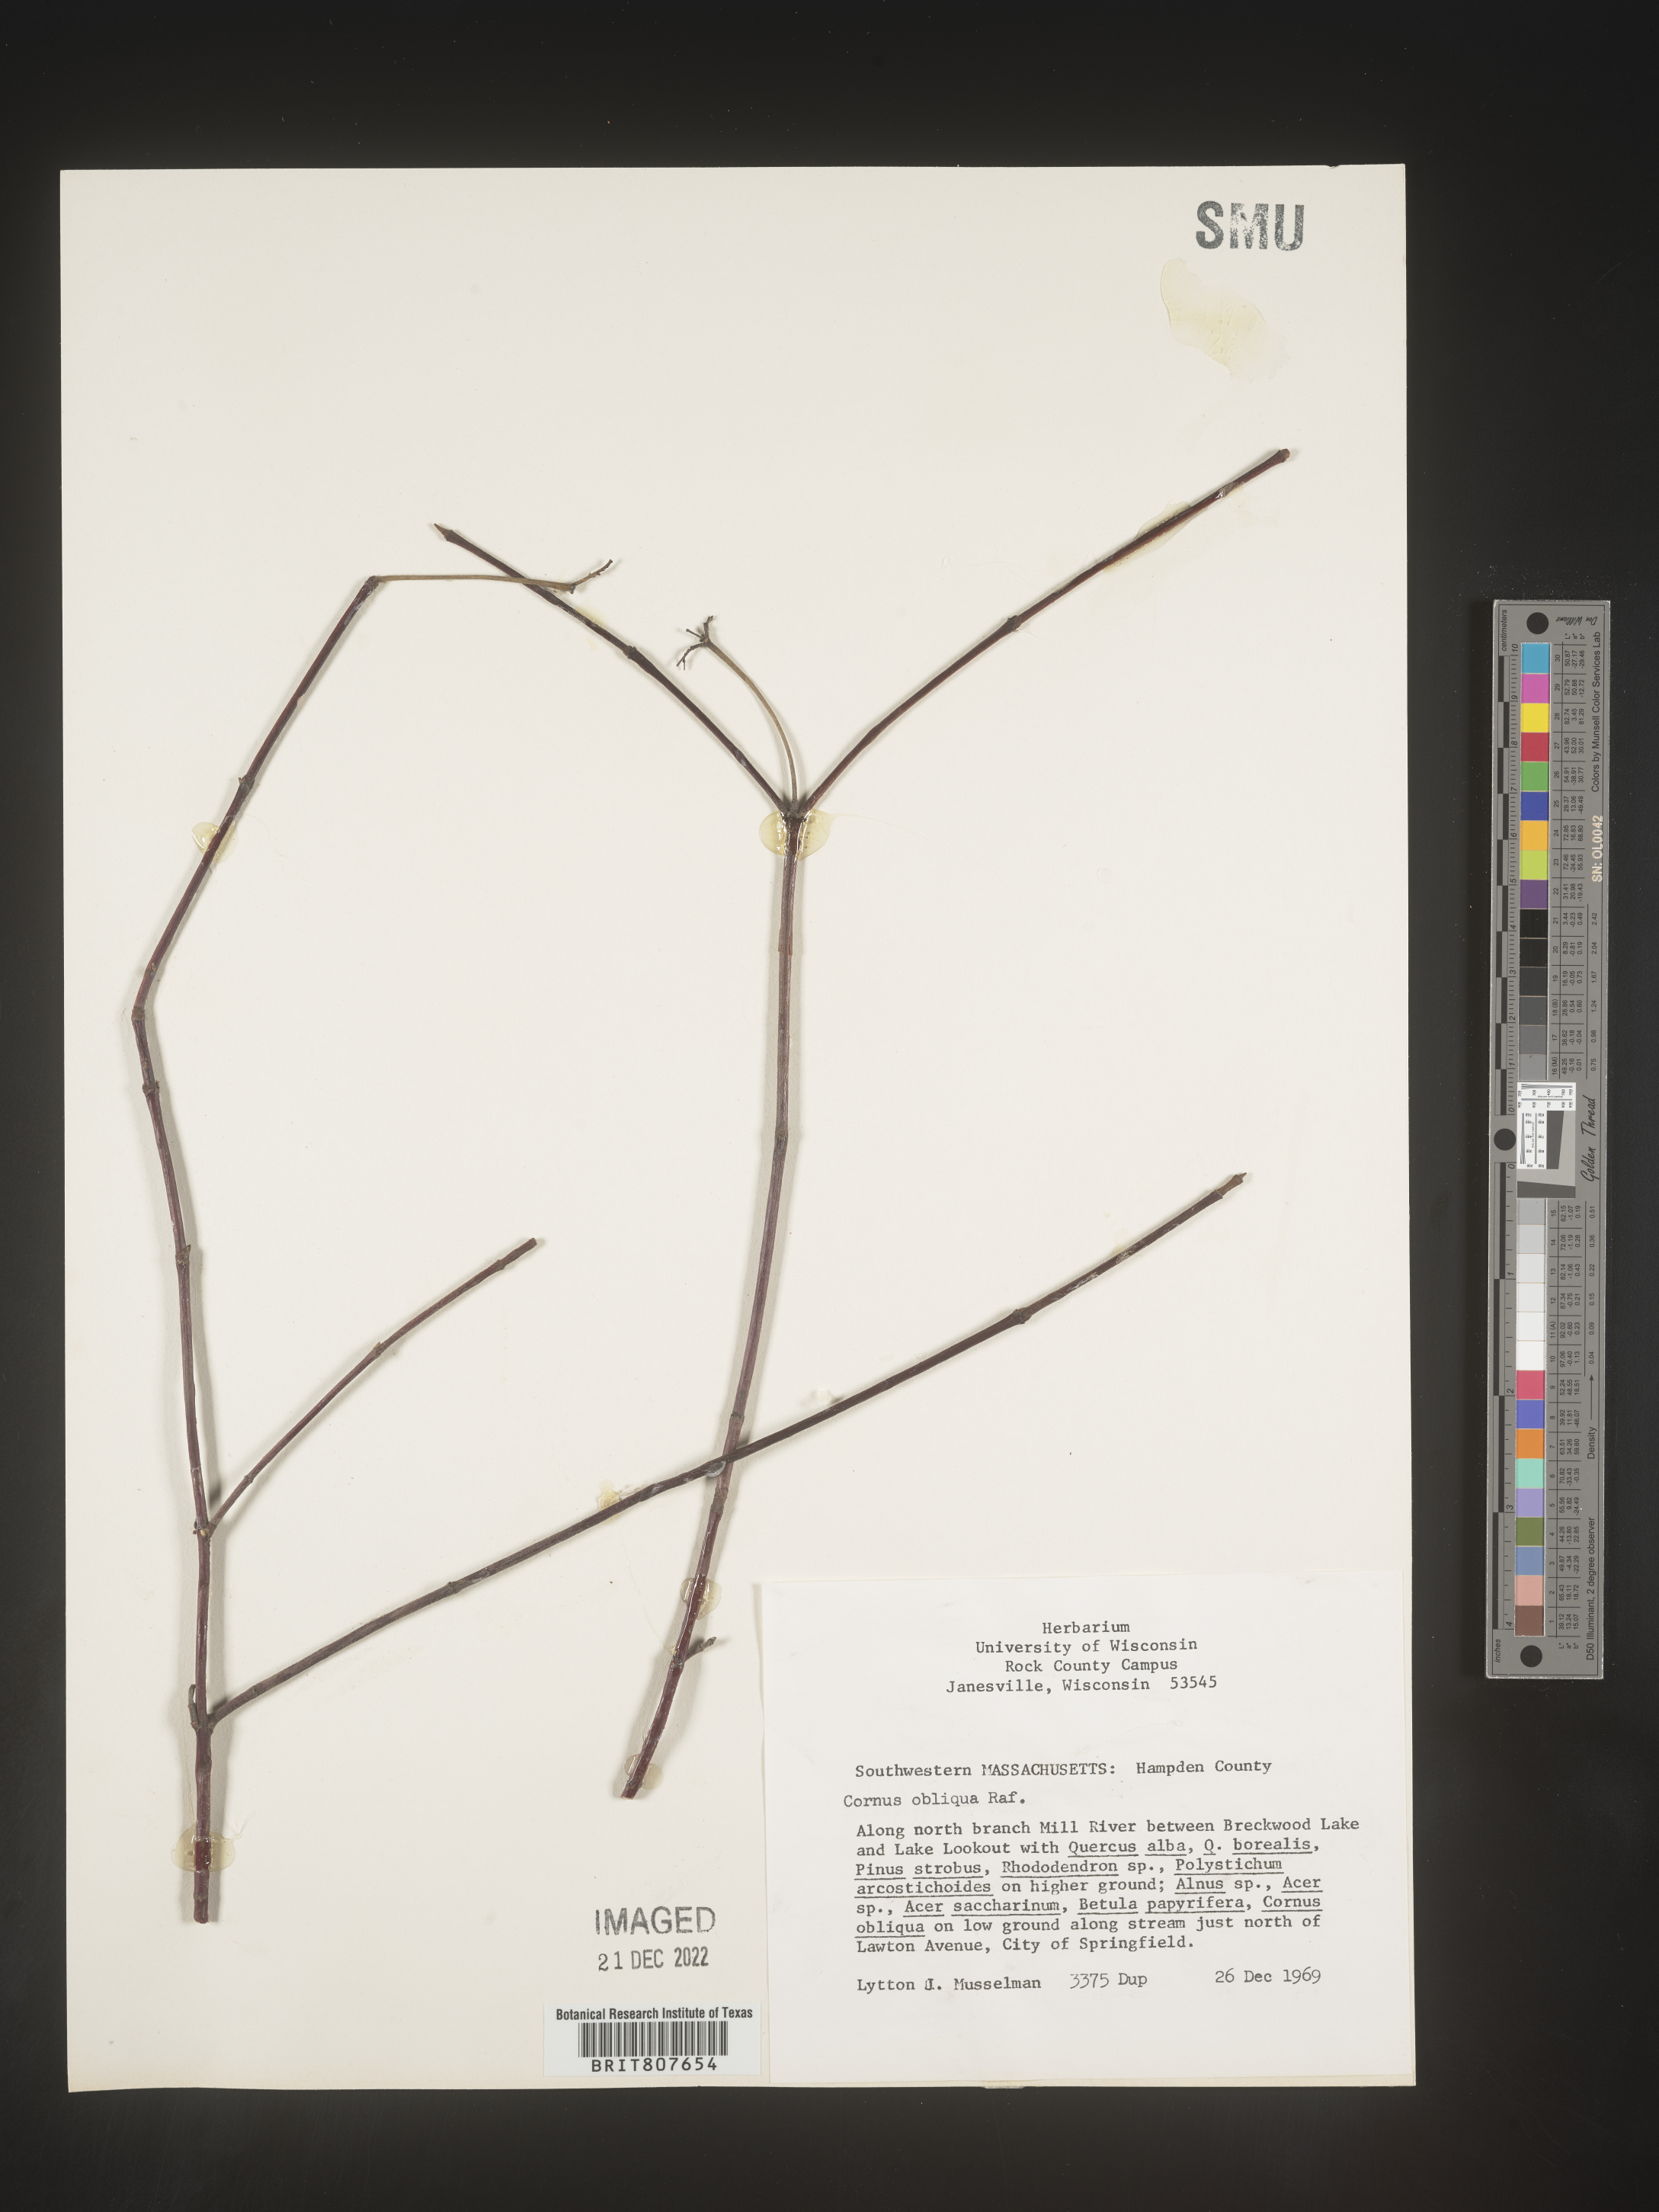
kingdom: Plantae
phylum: Tracheophyta
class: Magnoliopsida
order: Cornales
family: Cornaceae
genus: Cornus
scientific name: Cornus obliqua
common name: Pale dogwood
